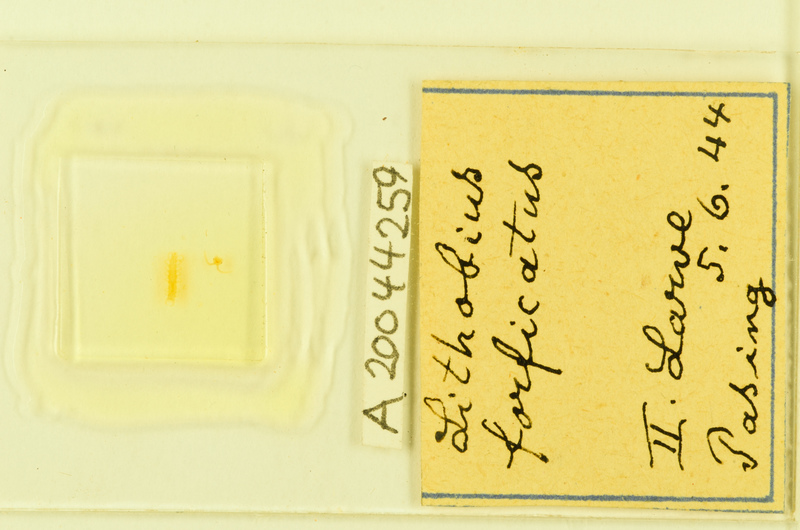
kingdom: Animalia
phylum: Arthropoda
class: Chilopoda
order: Lithobiomorpha
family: Lithobiidae
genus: Lithobius
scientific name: Lithobius forficatus
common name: Centipede
